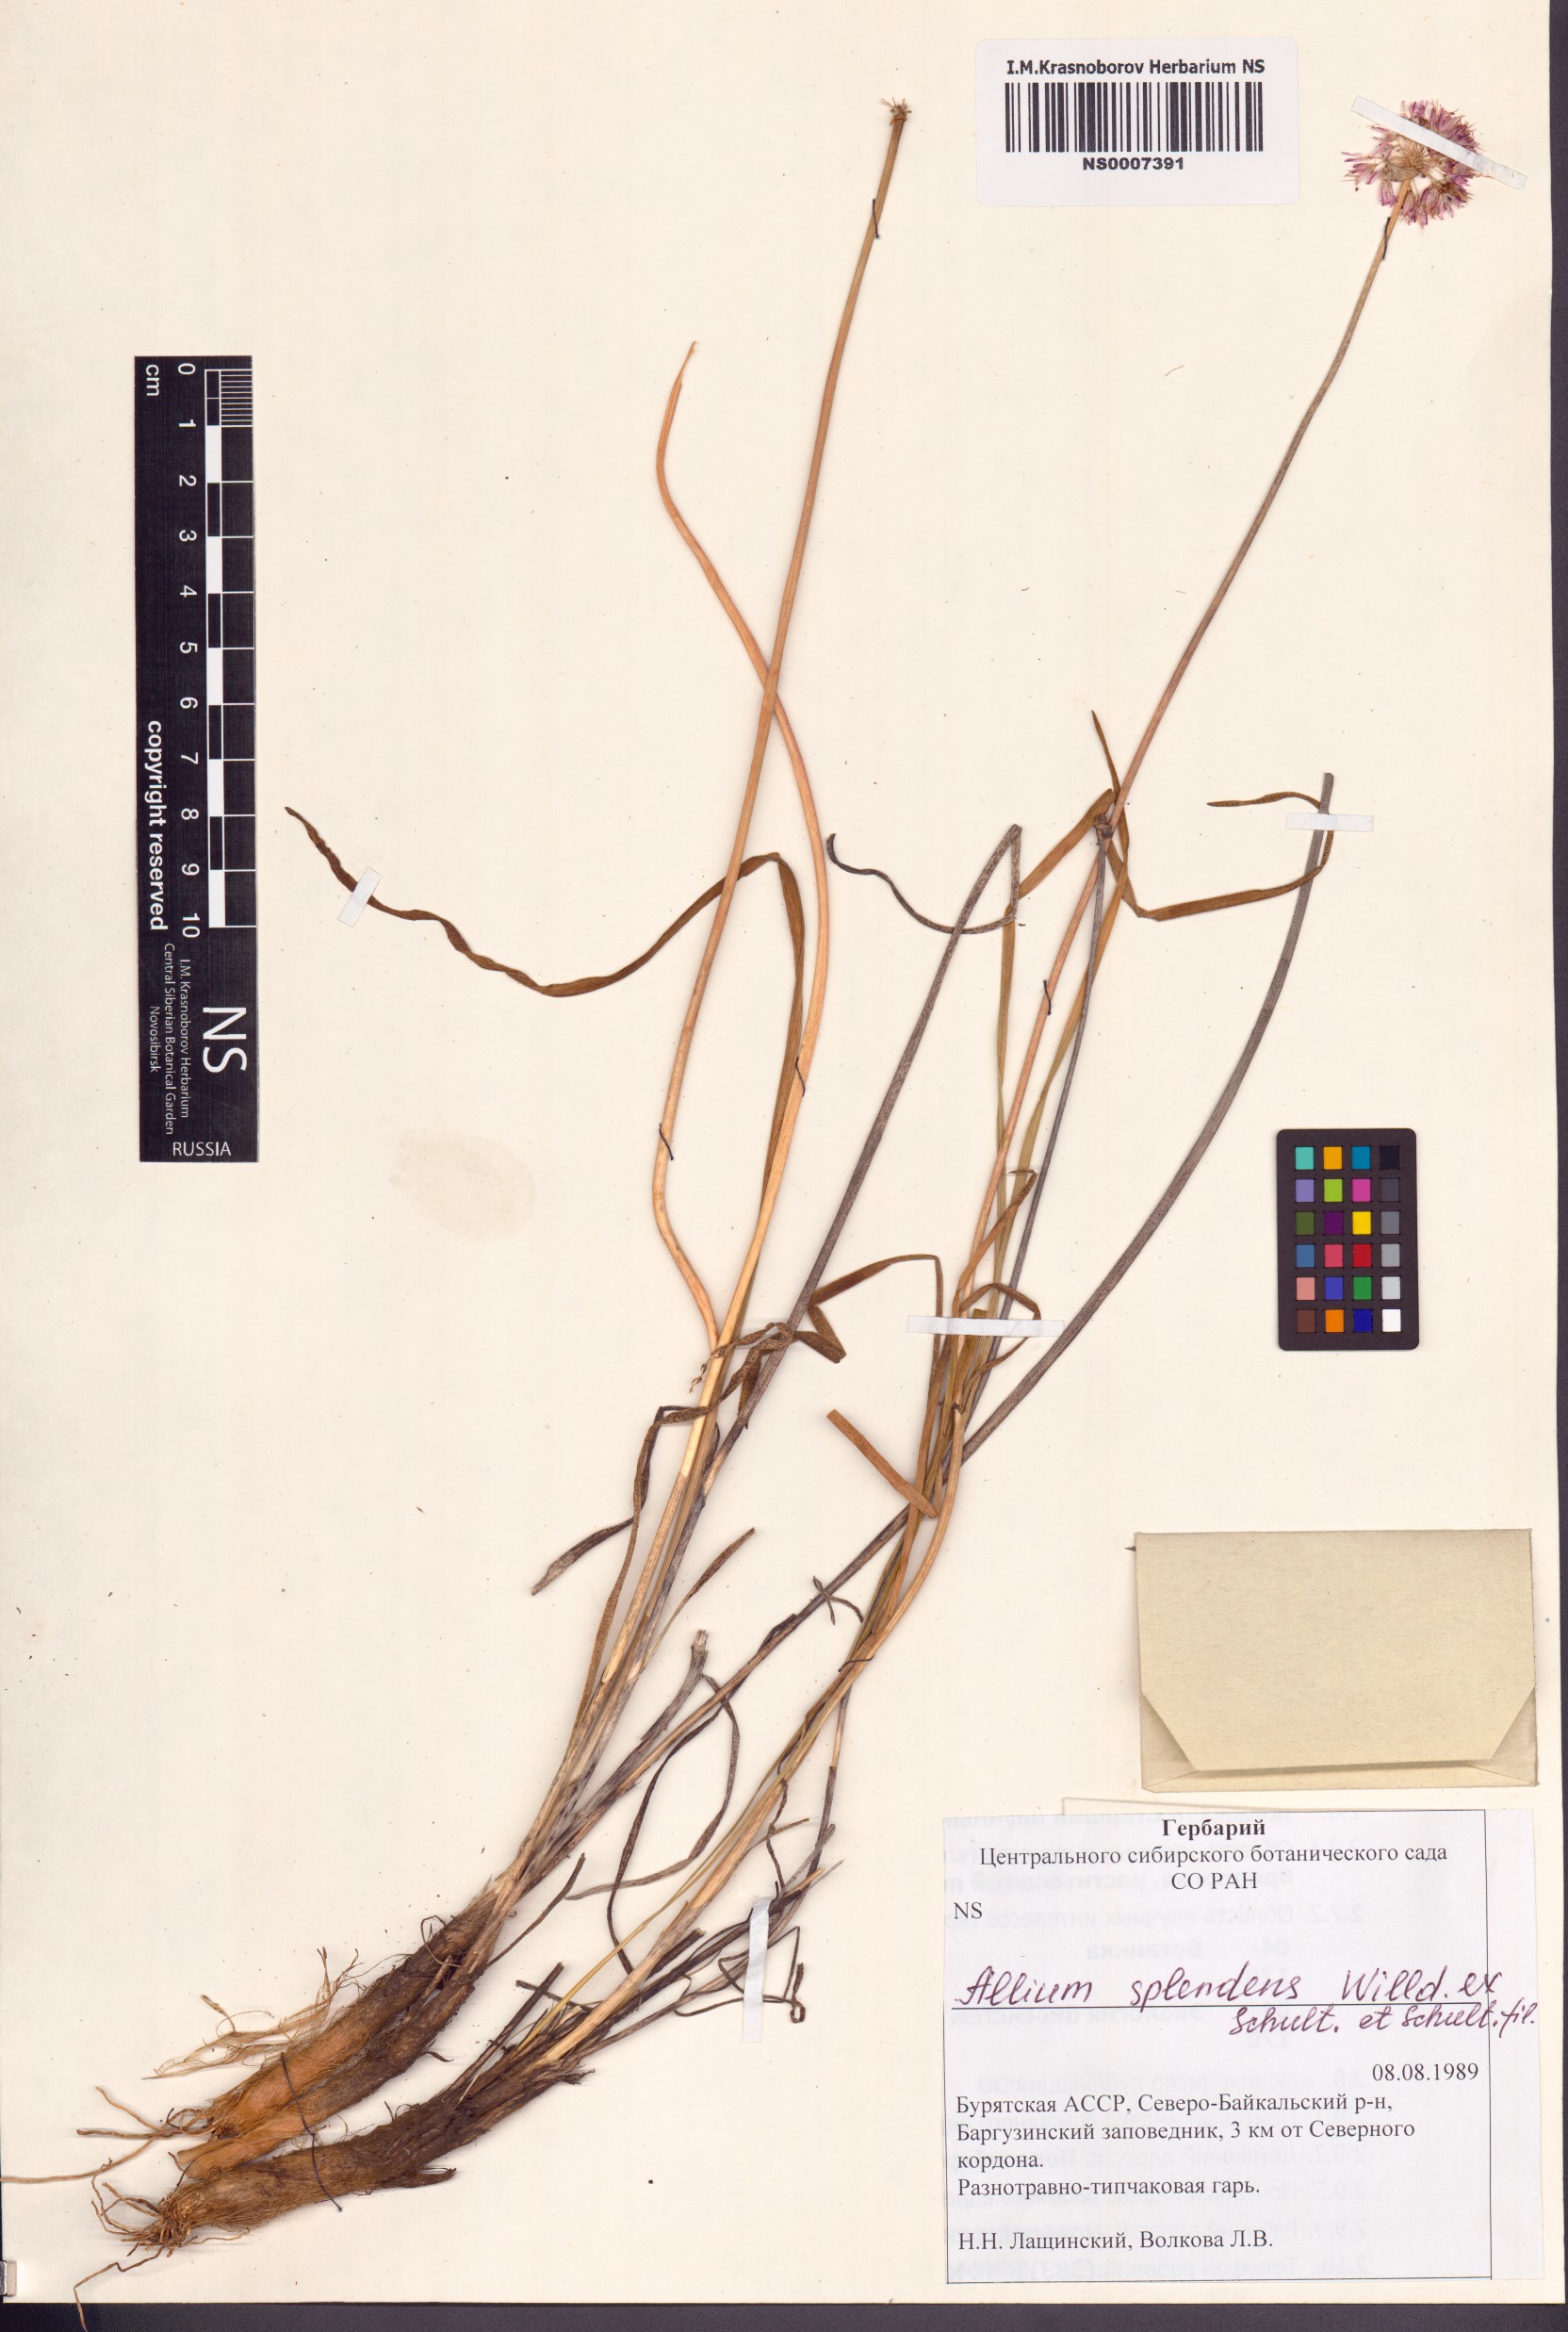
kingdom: Plantae
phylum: Tracheophyta
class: Liliopsida
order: Asparagales
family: Amaryllidaceae
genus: Allium
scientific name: Allium splendens
